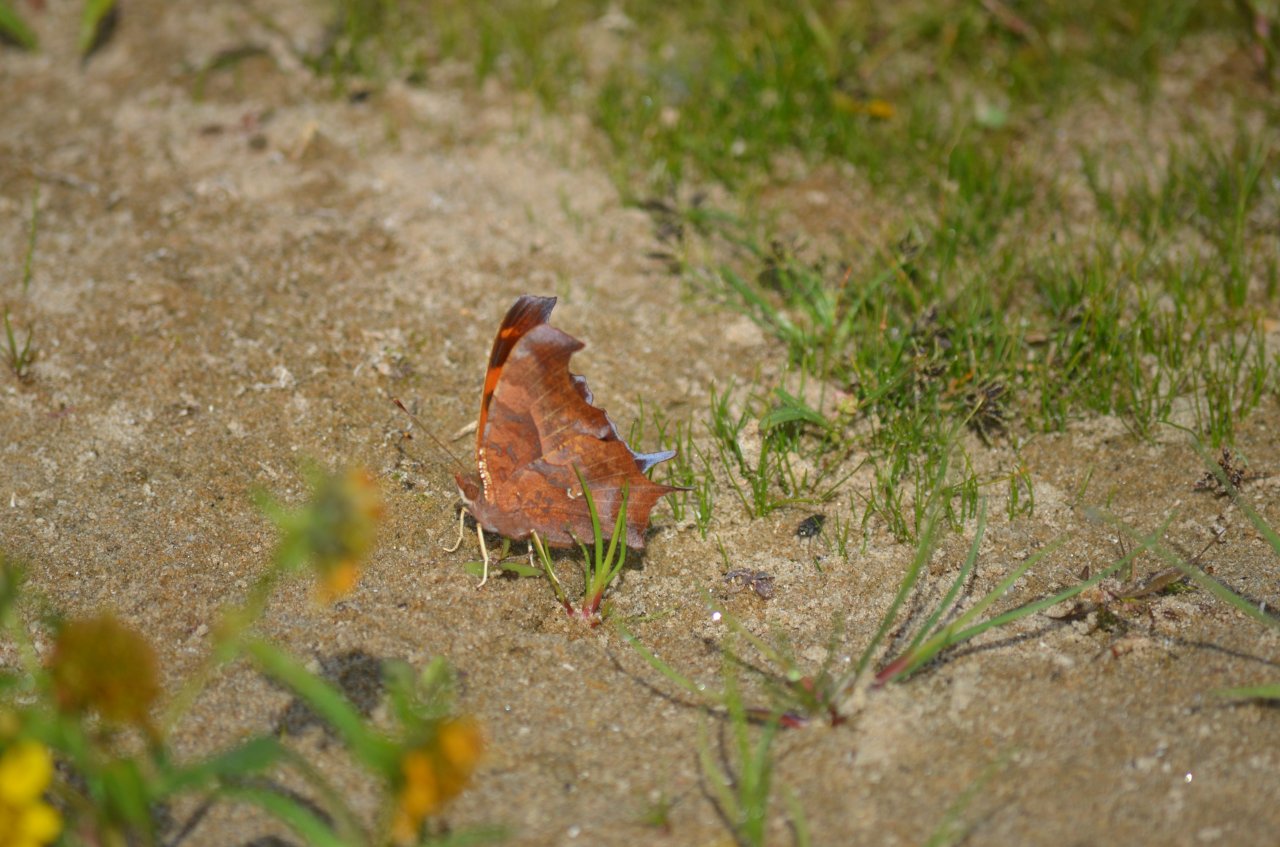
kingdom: Animalia
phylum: Arthropoda
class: Insecta
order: Lepidoptera
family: Nymphalidae
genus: Polygonia
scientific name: Polygonia interrogationis
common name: Question Mark
